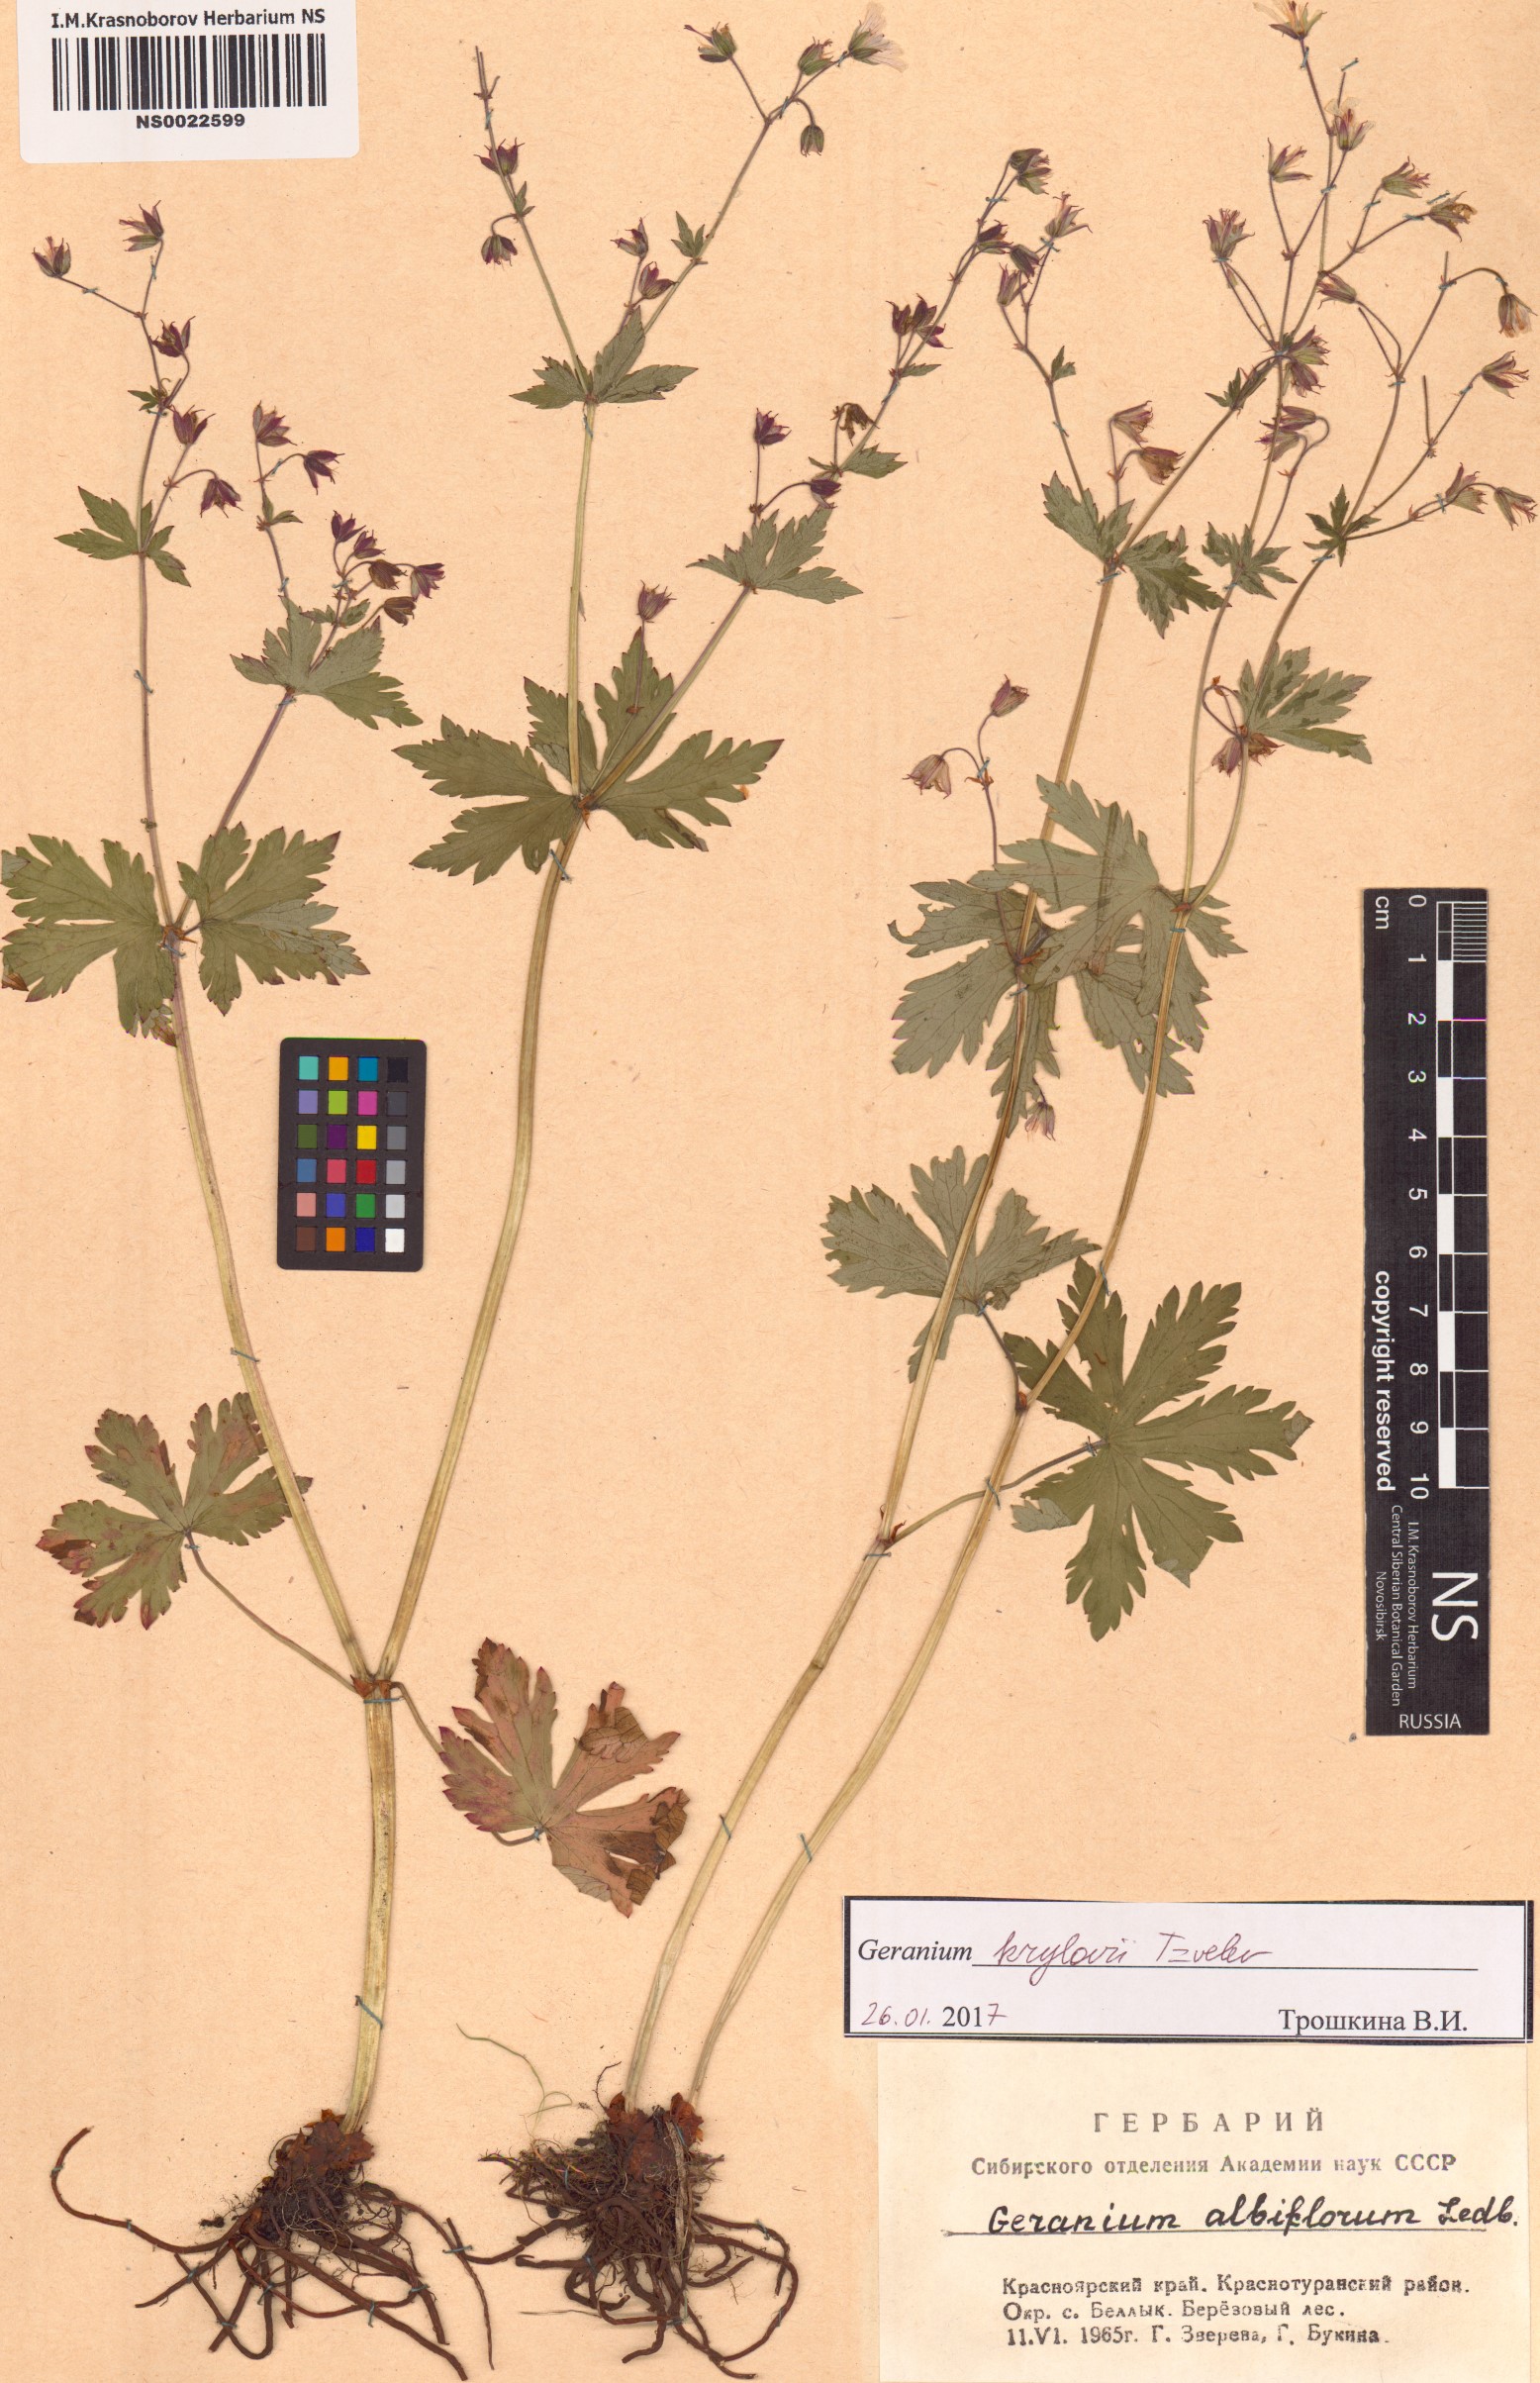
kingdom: Plantae
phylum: Tracheophyta
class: Magnoliopsida
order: Geraniales
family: Geraniaceae
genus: Geranium
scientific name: Geranium sylvaticum
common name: Wood crane's-bill
